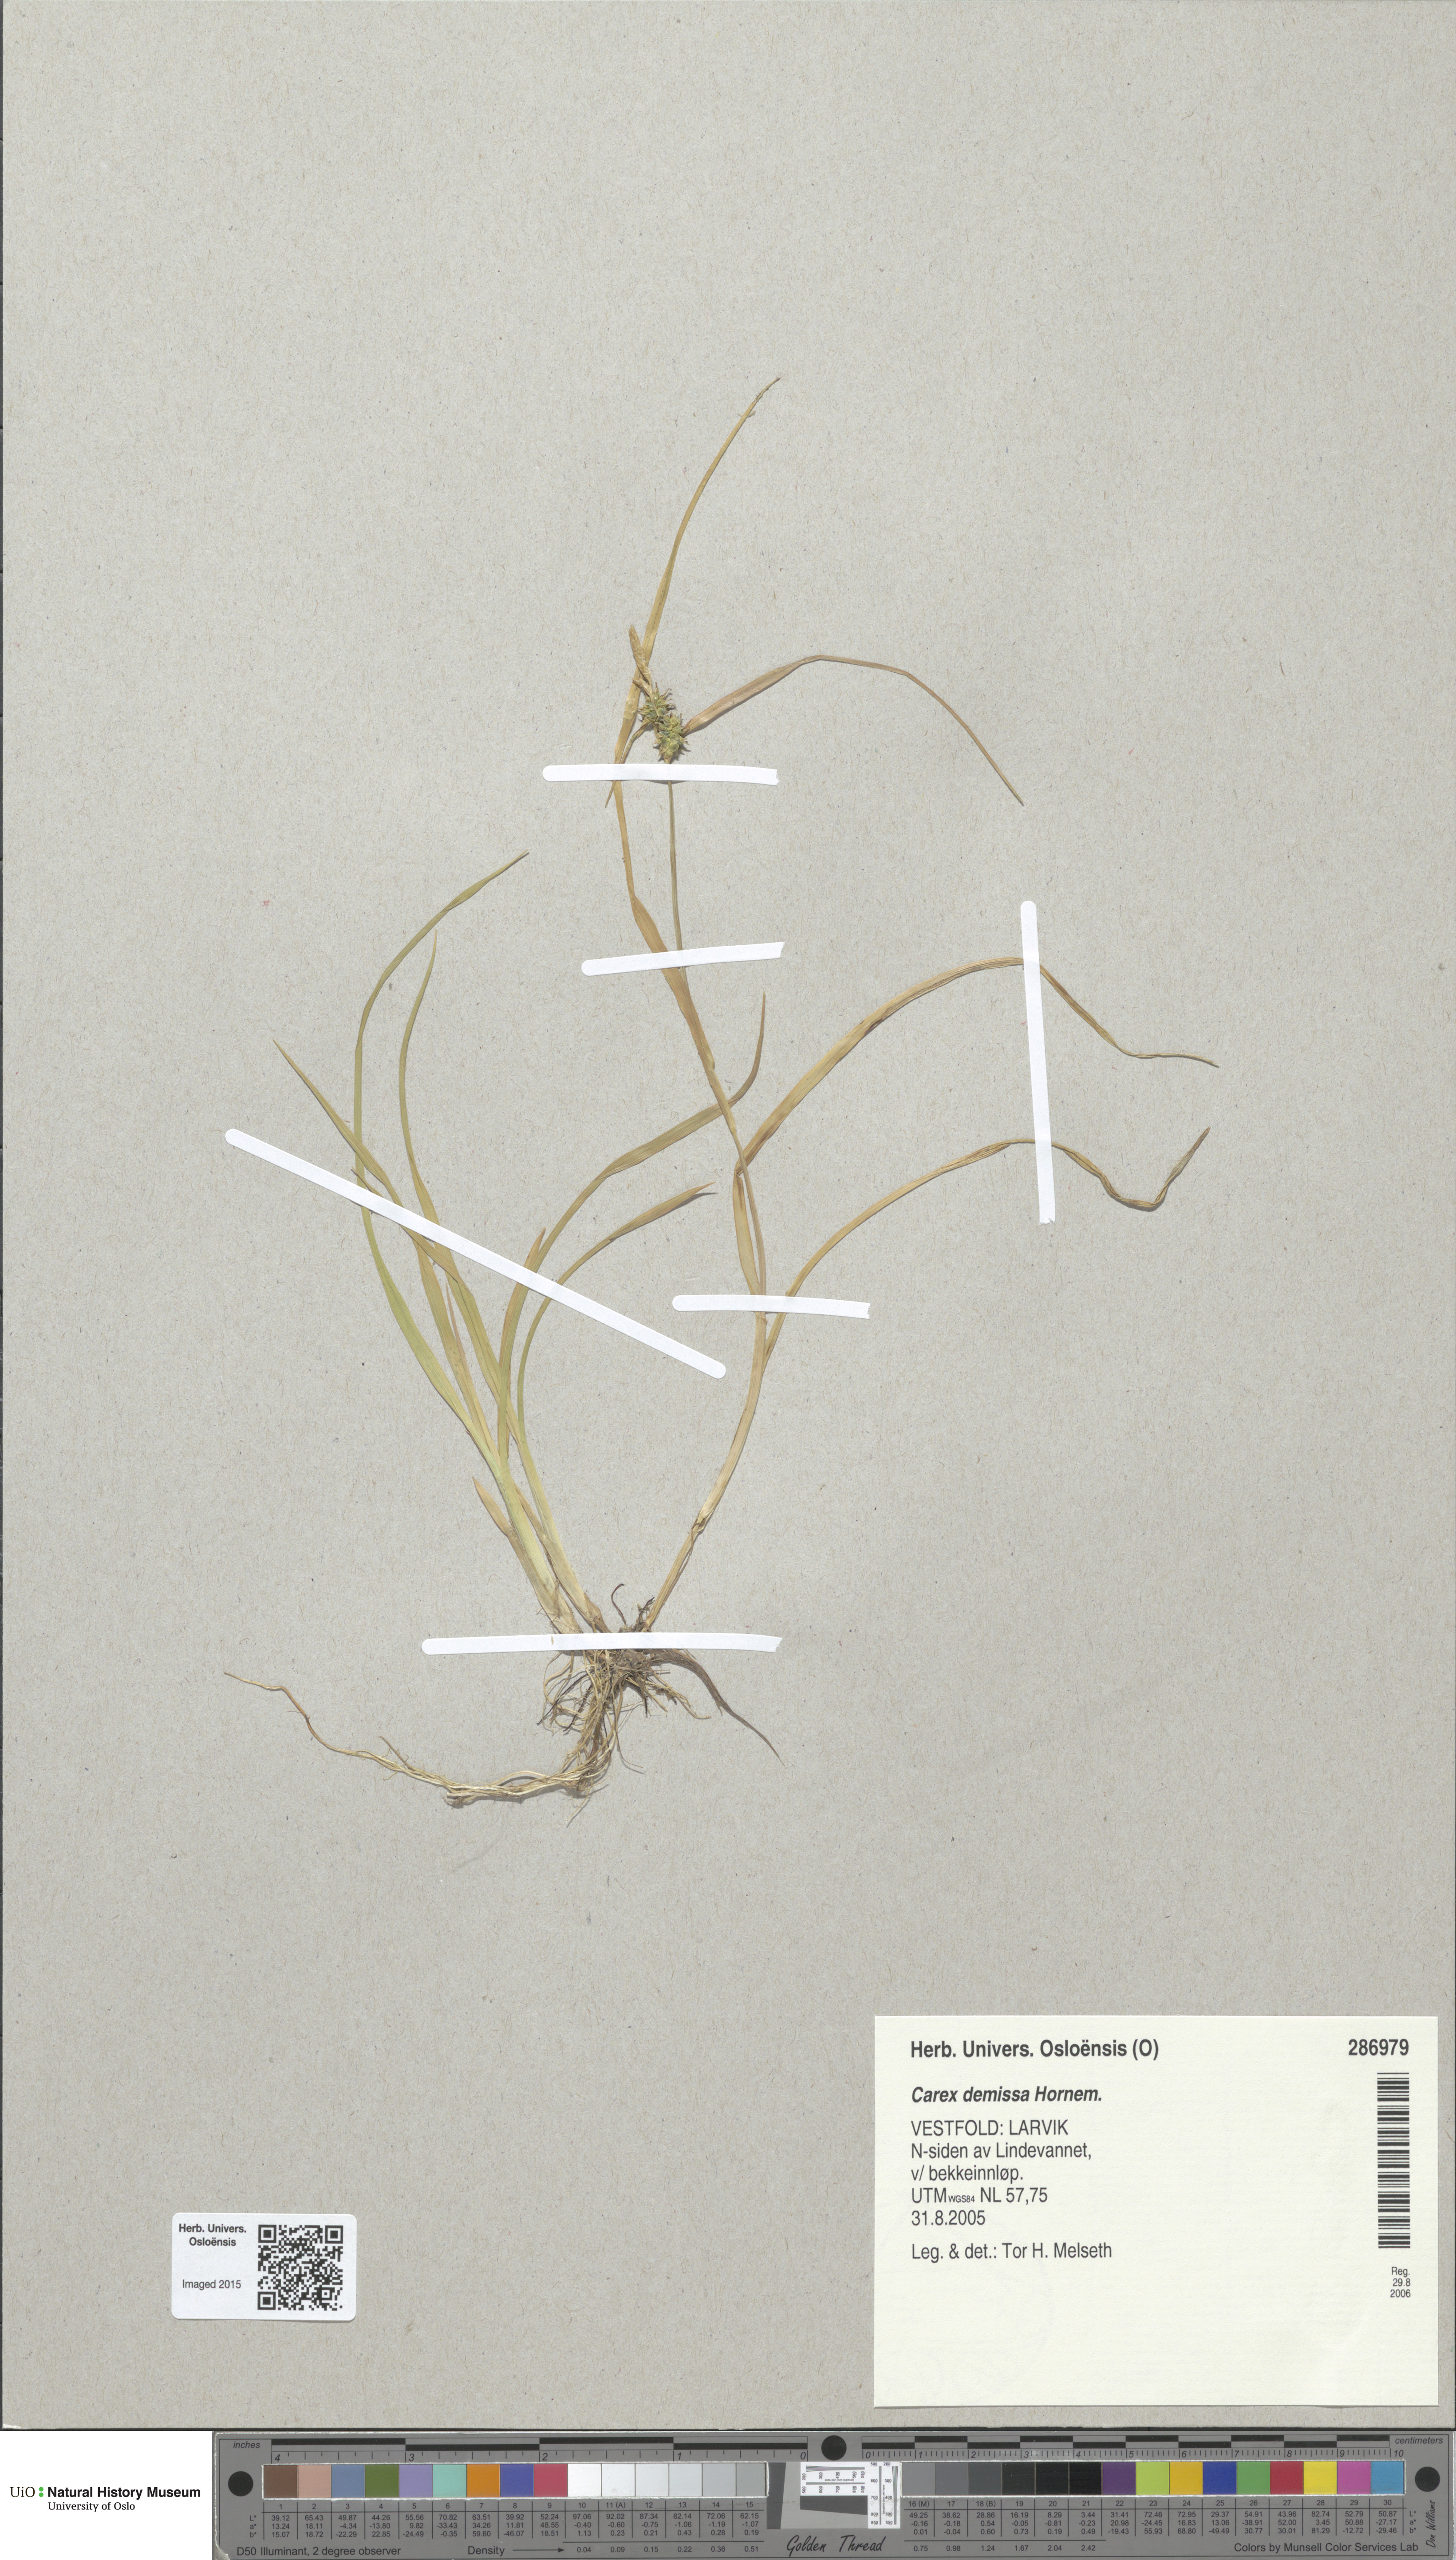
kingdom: Plantae
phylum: Tracheophyta
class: Liliopsida
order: Poales
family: Cyperaceae
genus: Carex
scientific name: Carex demissa
